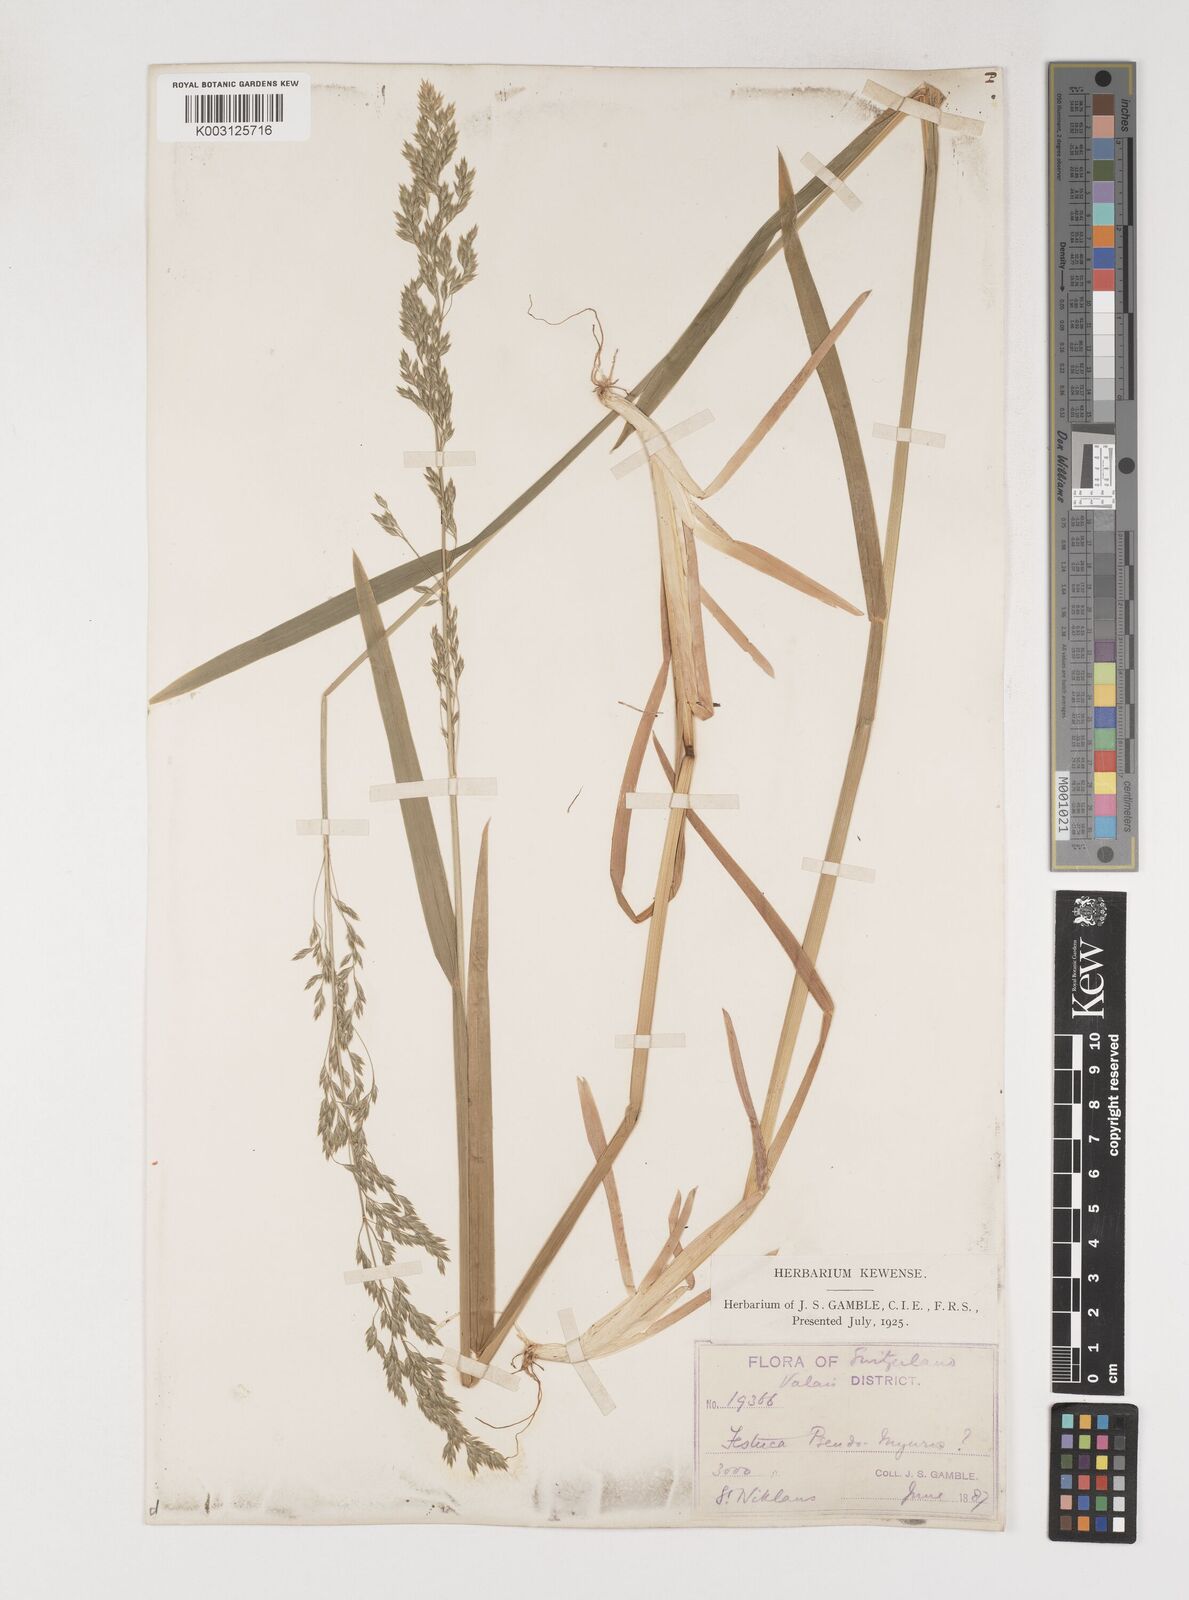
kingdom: Plantae
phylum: Tracheophyta
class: Liliopsida
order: Poales
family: Poaceae
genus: Poa
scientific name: Poa chaixii
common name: Broad-leaved meadow-grass
